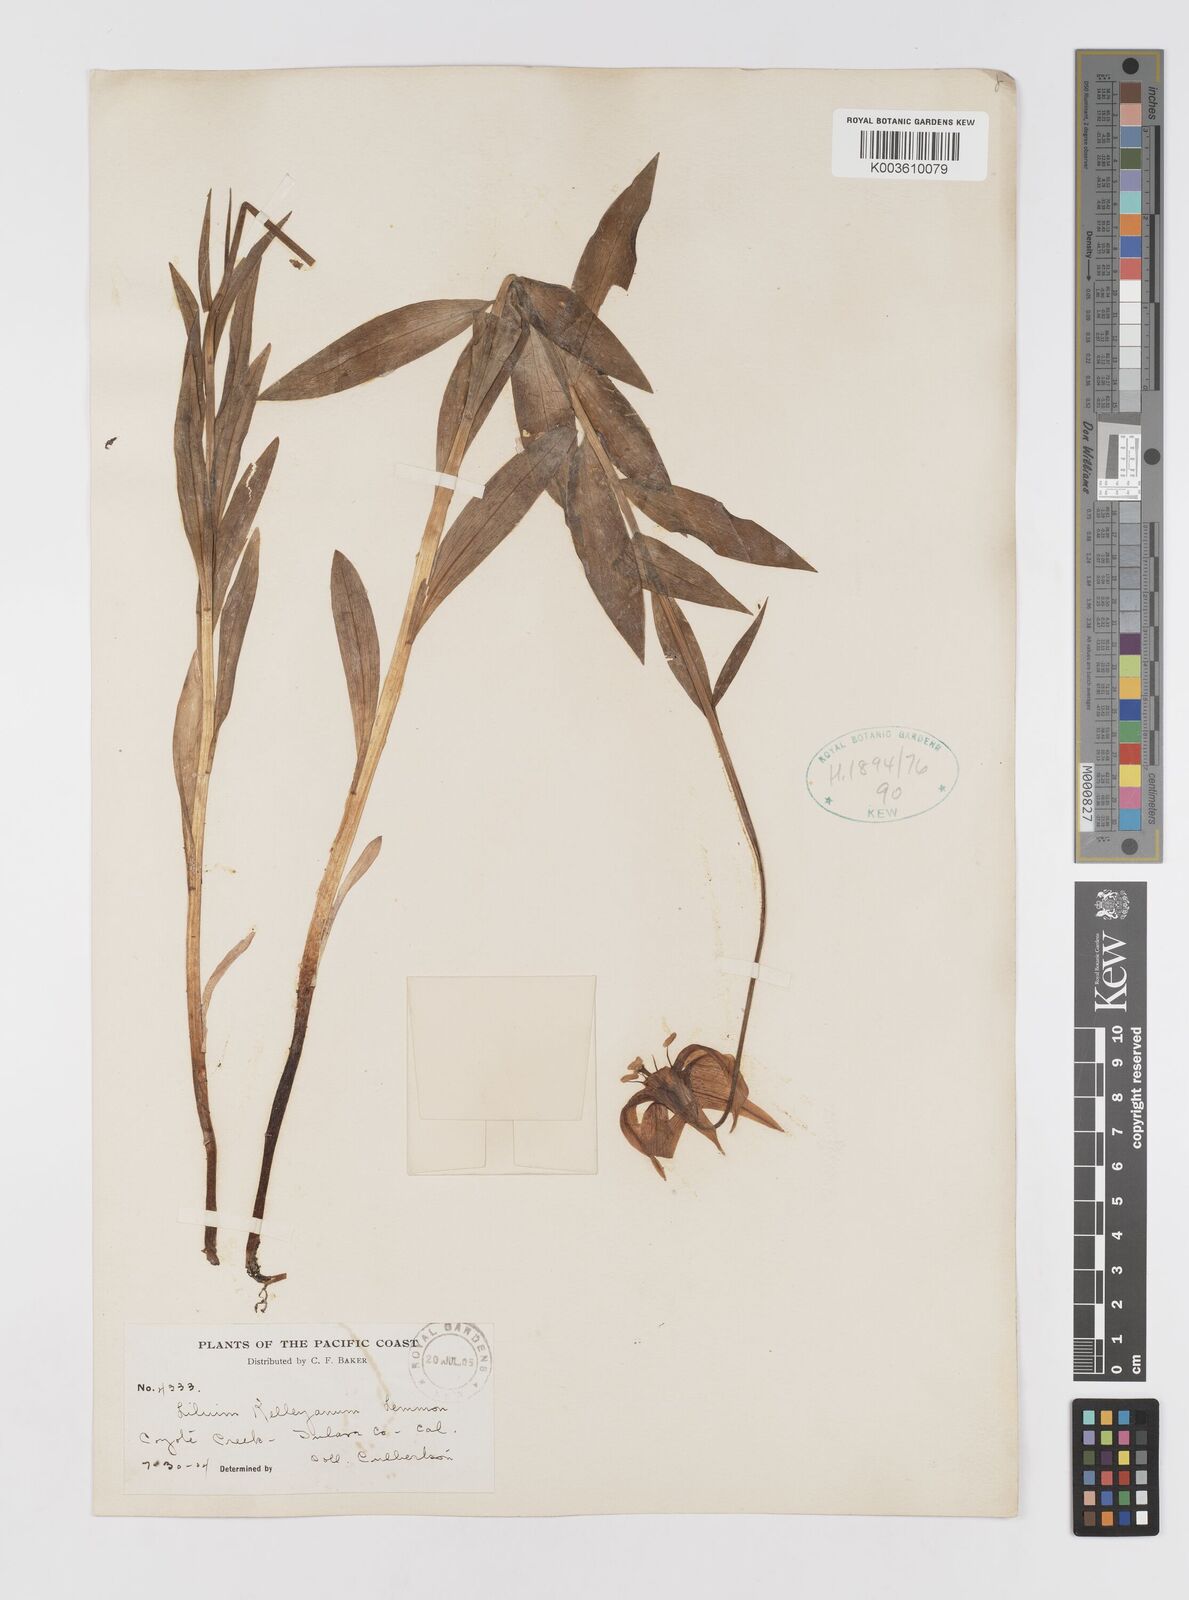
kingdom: Plantae
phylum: Tracheophyta
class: Liliopsida
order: Liliales
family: Liliaceae
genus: Lilium
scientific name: Lilium kelleyanum
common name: Kelley's lily
